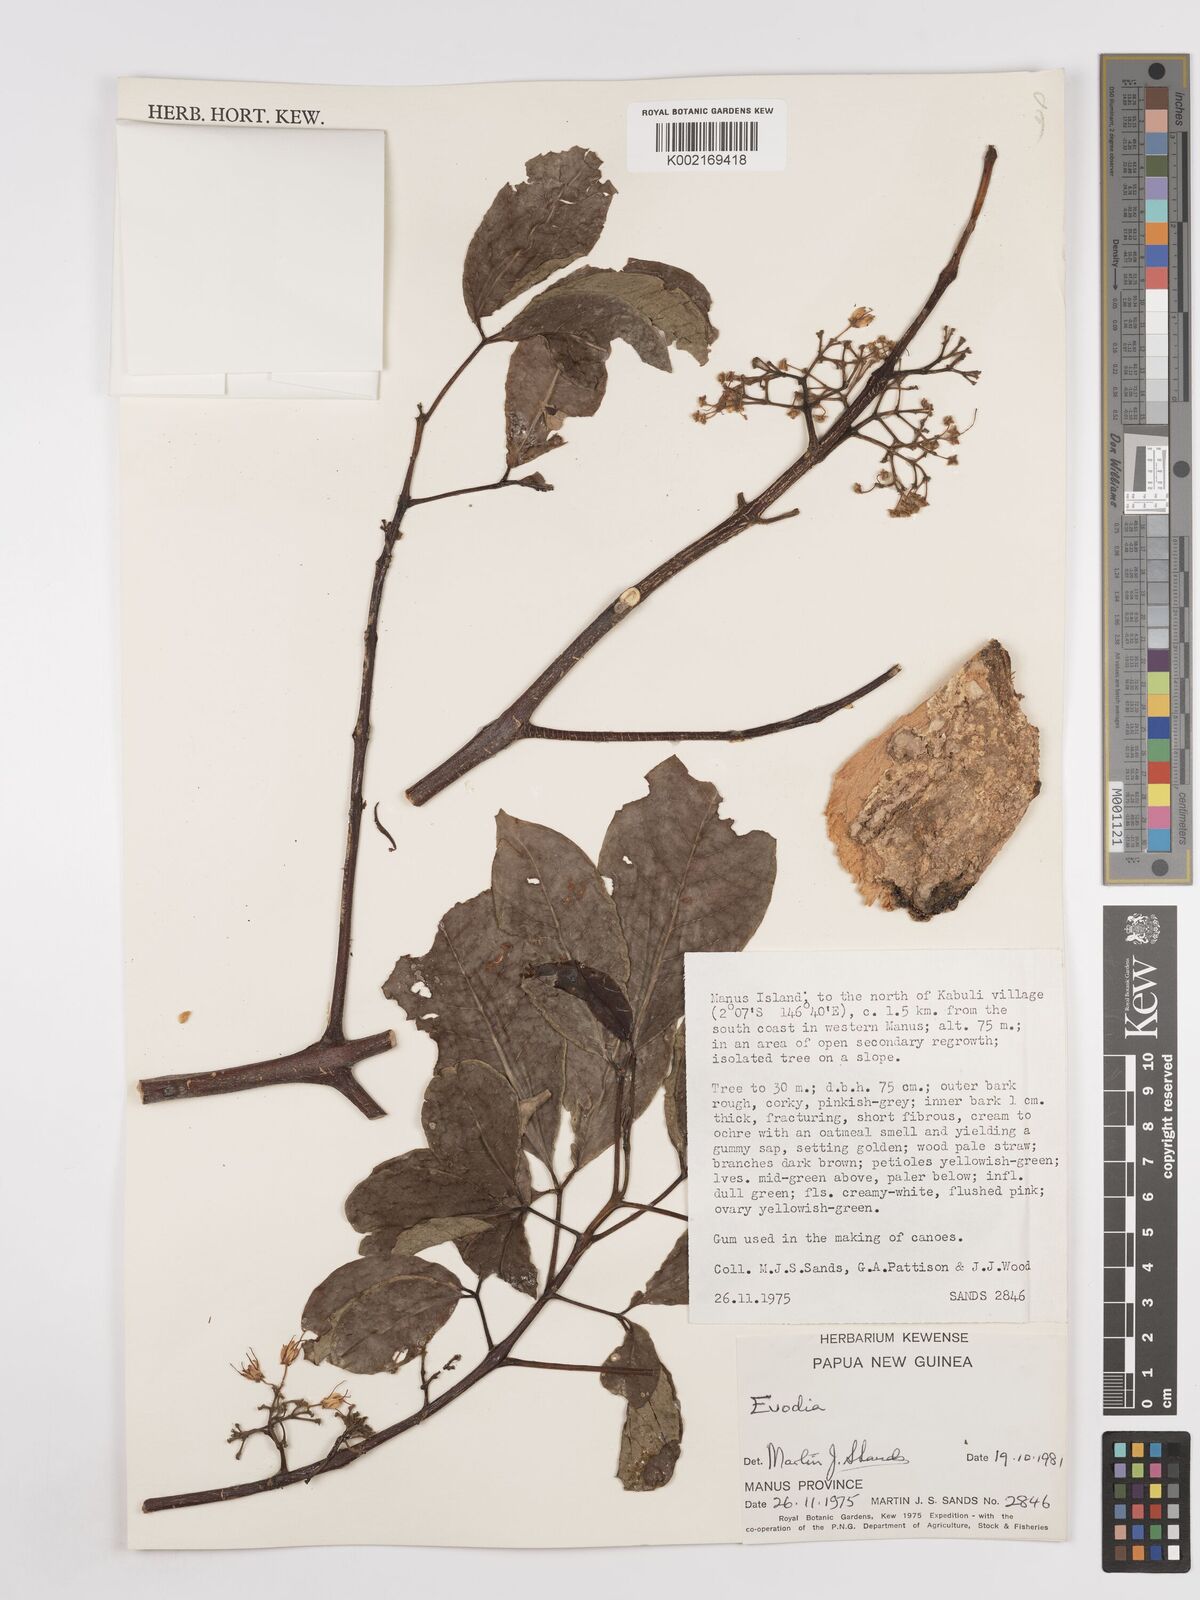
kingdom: Plantae
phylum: Tracheophyta
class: Magnoliopsida
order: Sapindales
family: Rutaceae
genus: Euodia
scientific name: Euodia
